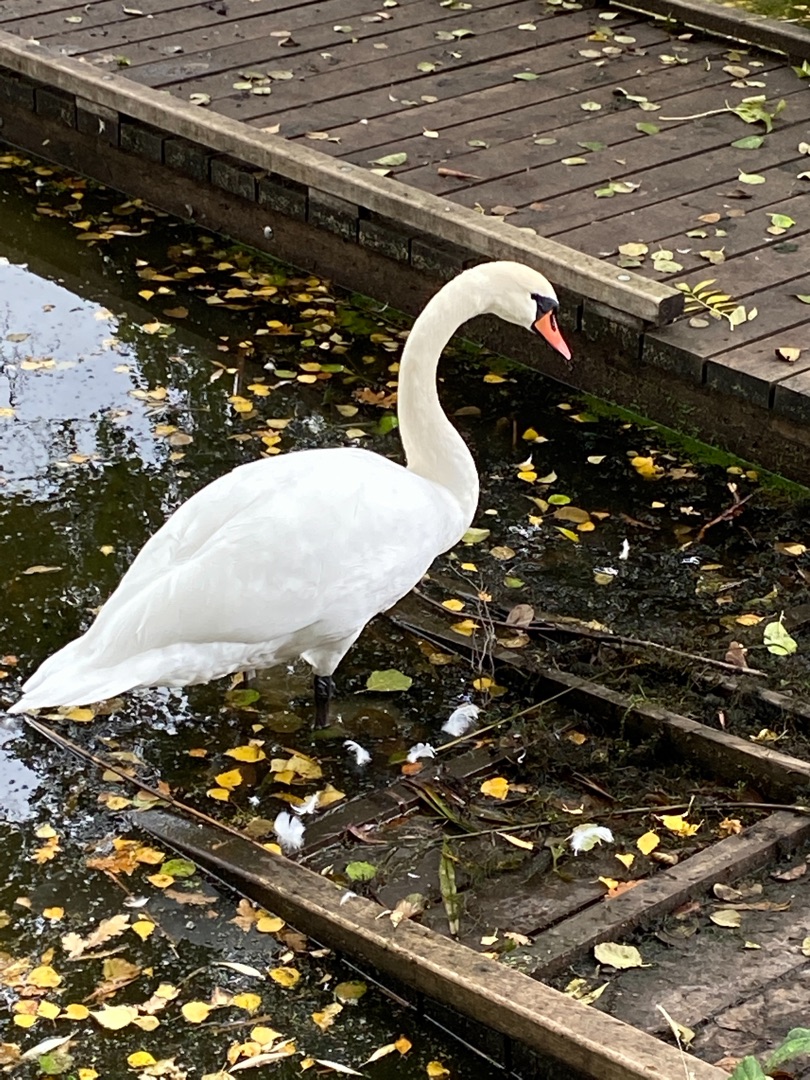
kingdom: Animalia
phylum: Chordata
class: Aves
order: Anseriformes
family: Anatidae
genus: Cygnus
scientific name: Cygnus olor
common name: Knopsvane
